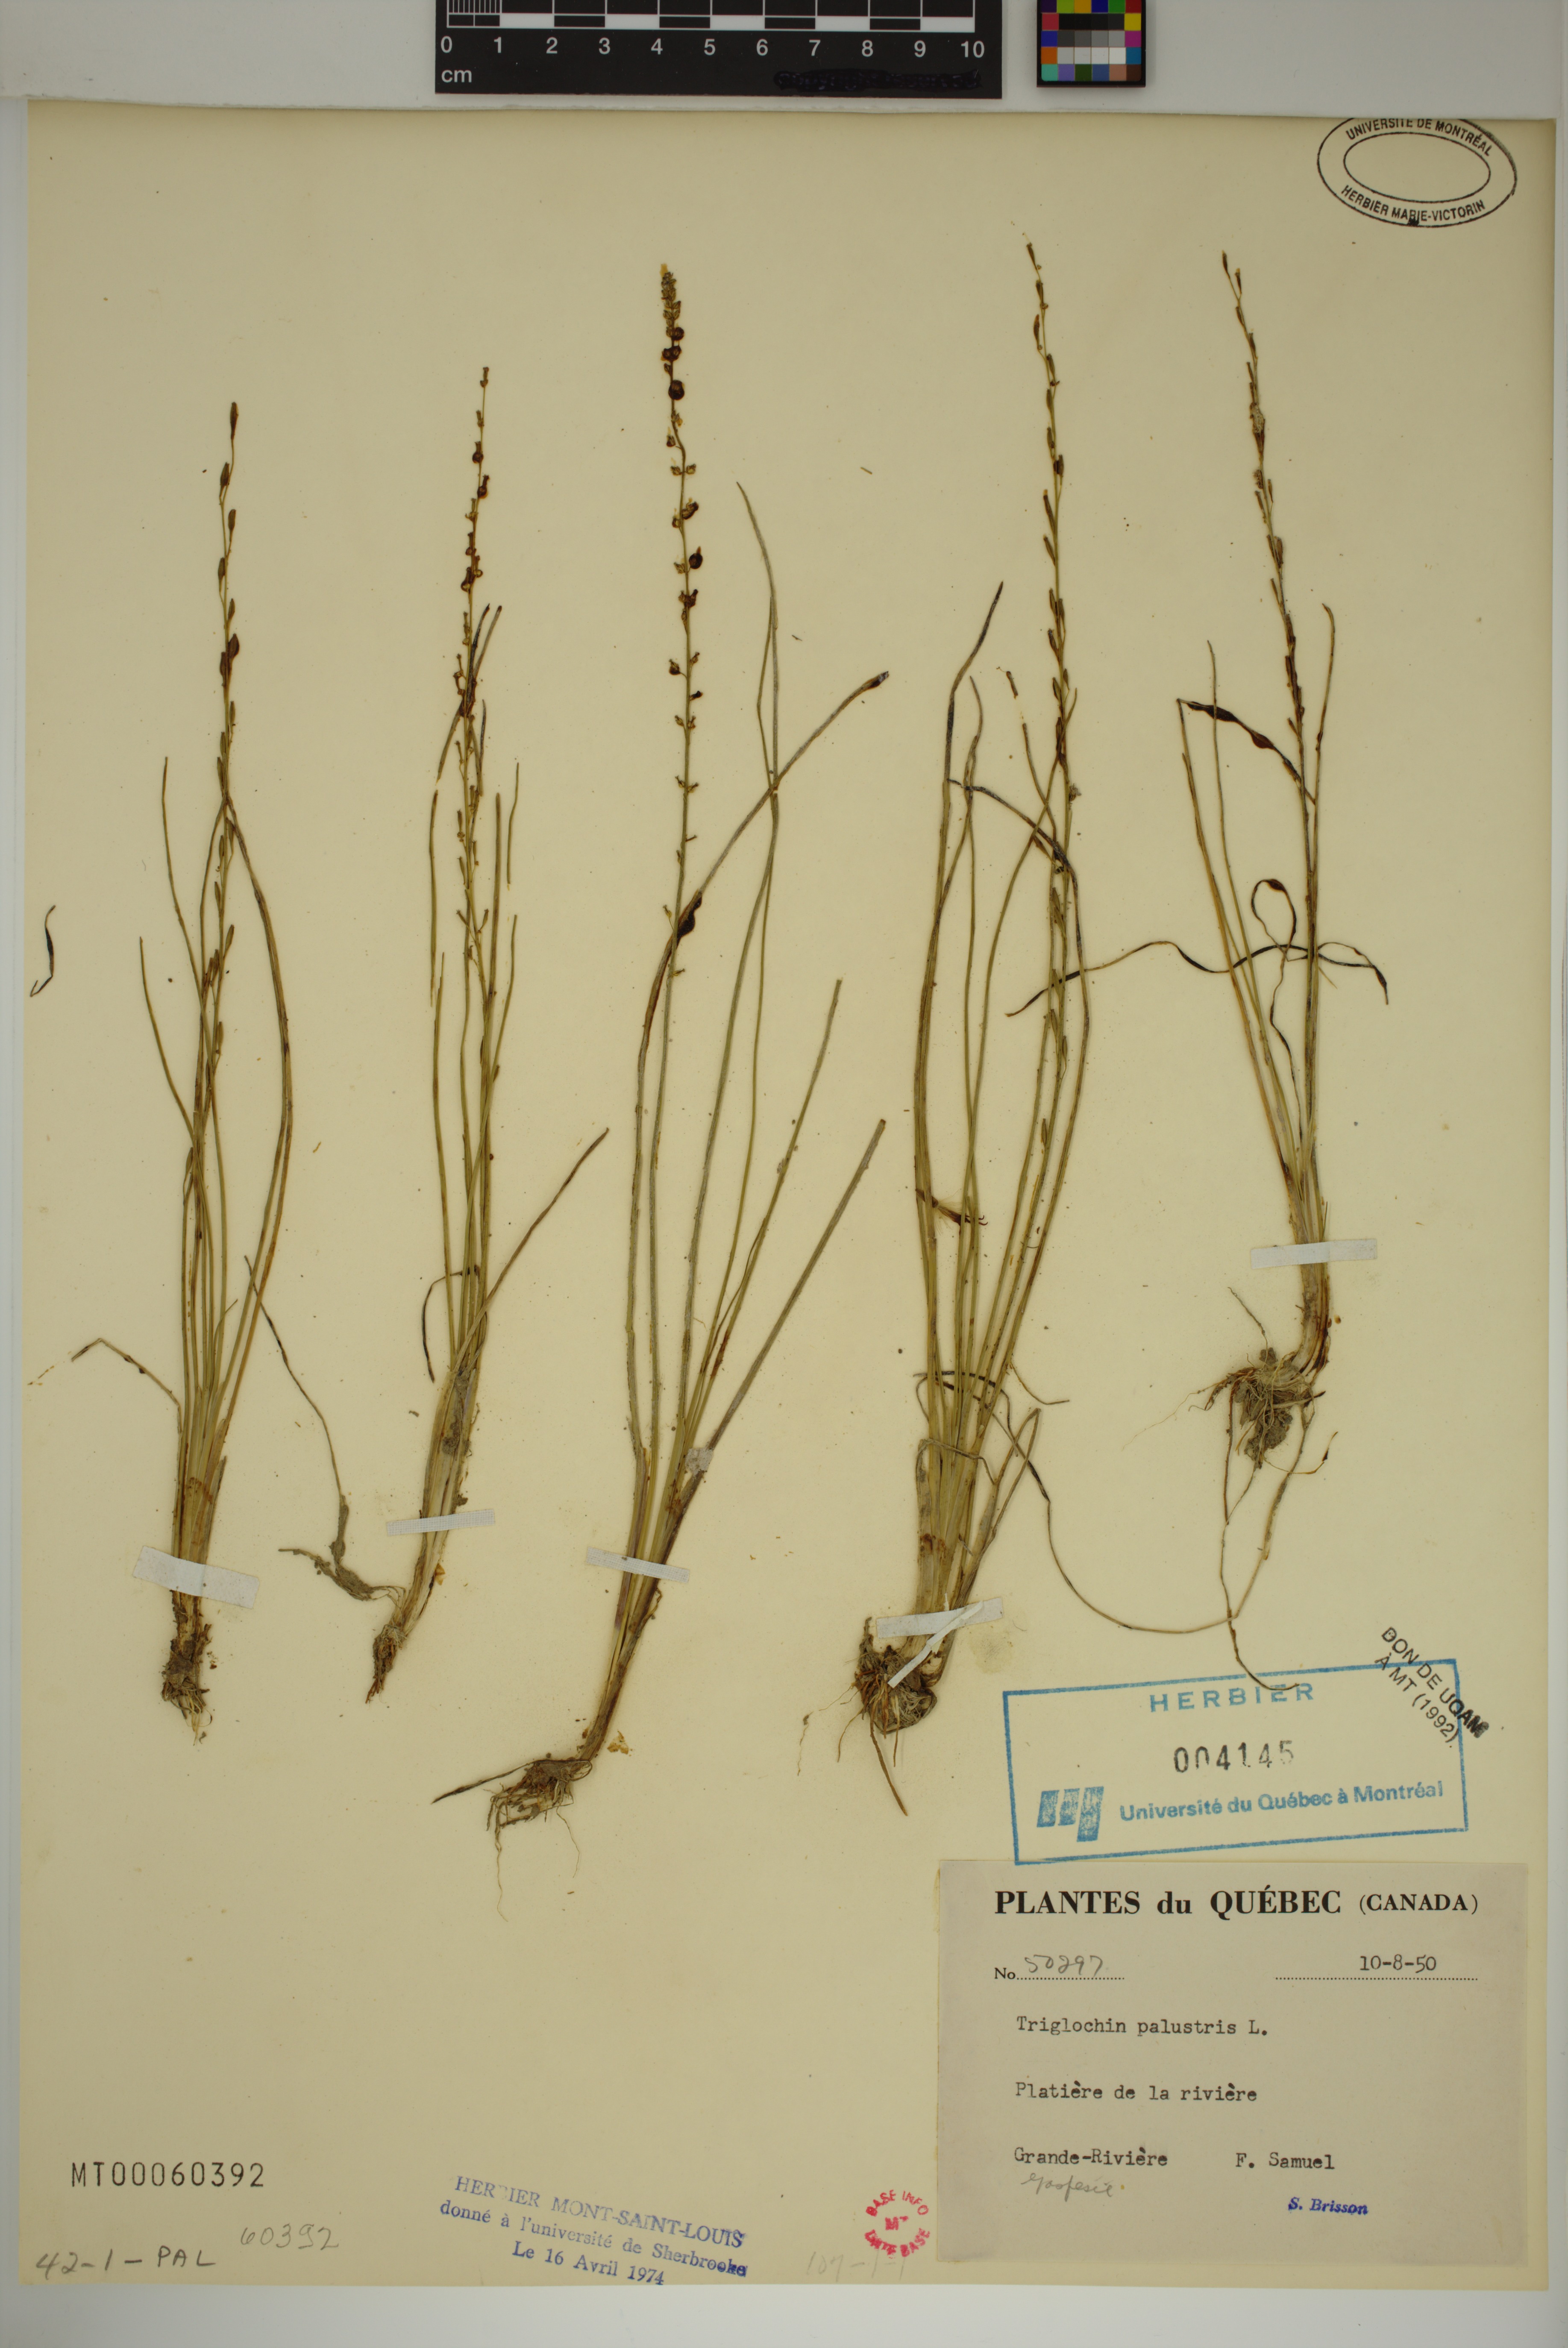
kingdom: Plantae
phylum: Tracheophyta
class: Liliopsida
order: Alismatales
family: Juncaginaceae
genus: Triglochin
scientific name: Triglochin palustris
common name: Marsh arrowgrass
